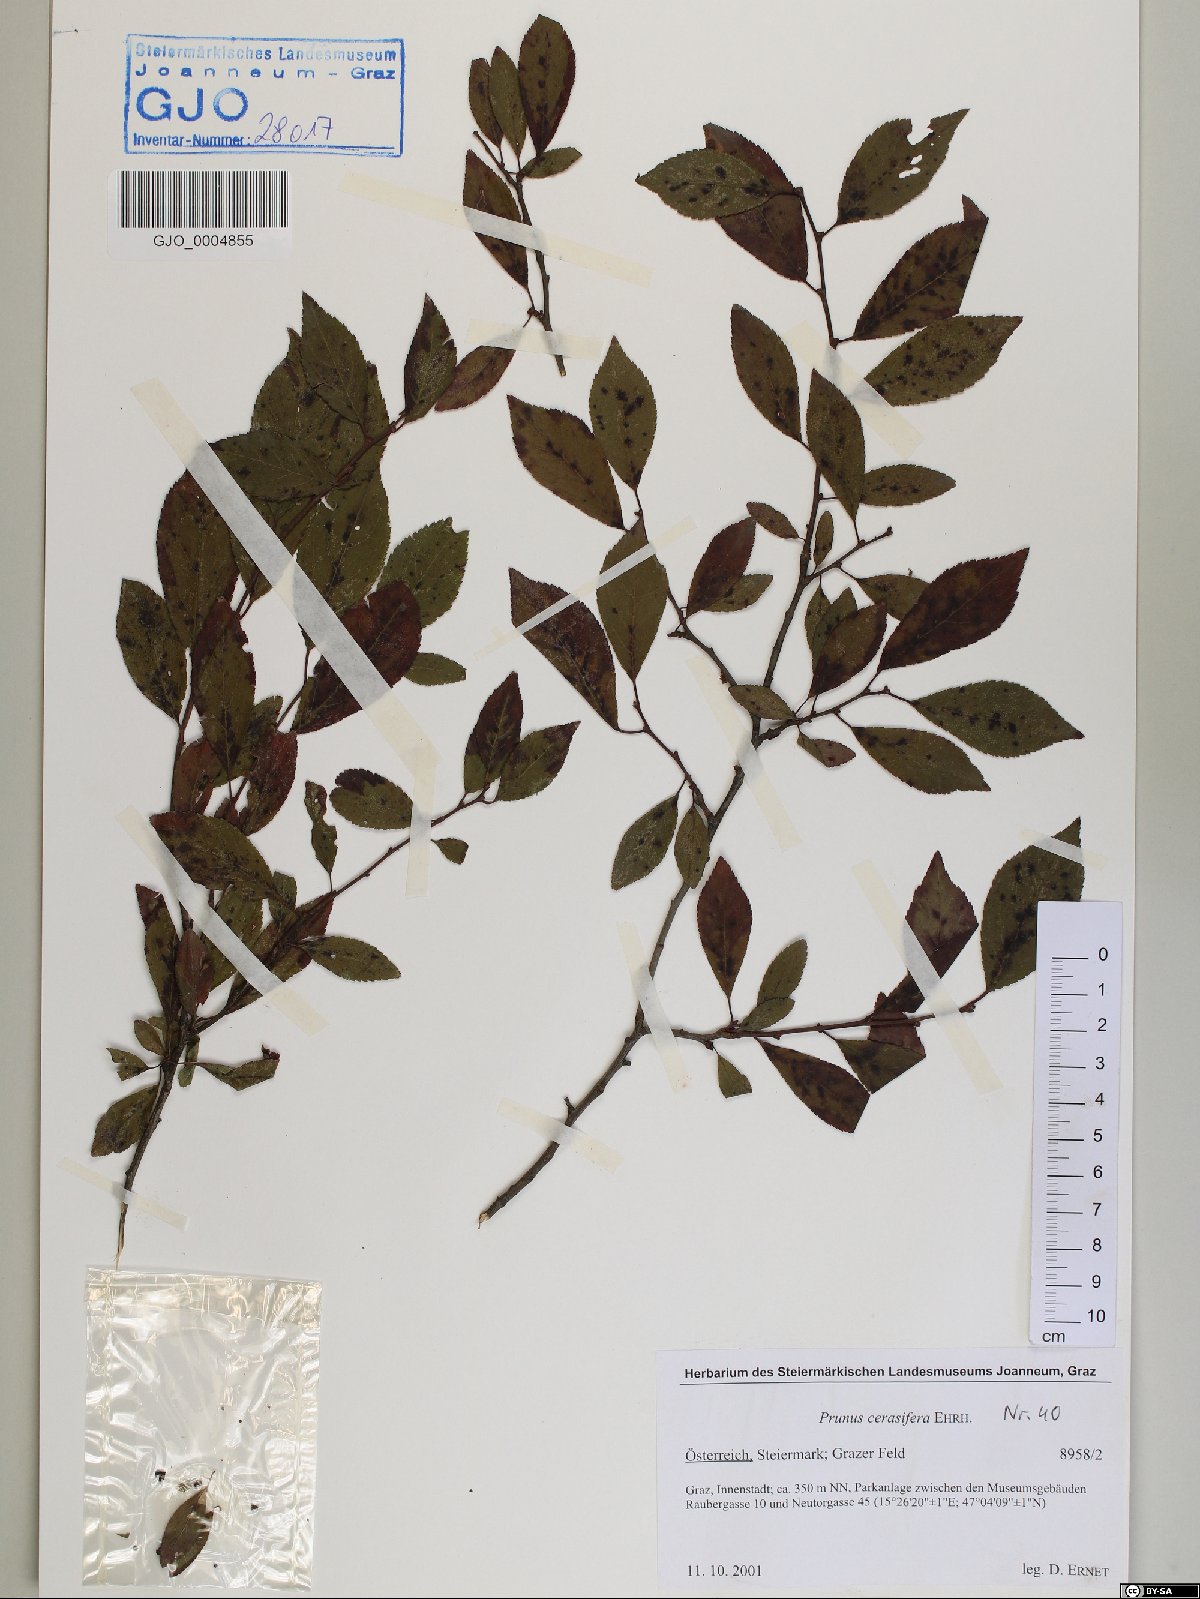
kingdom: Plantae
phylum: Tracheophyta
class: Magnoliopsida
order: Rosales
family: Rosaceae
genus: Prunus
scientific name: Prunus cerasifera
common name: Cherry plum
